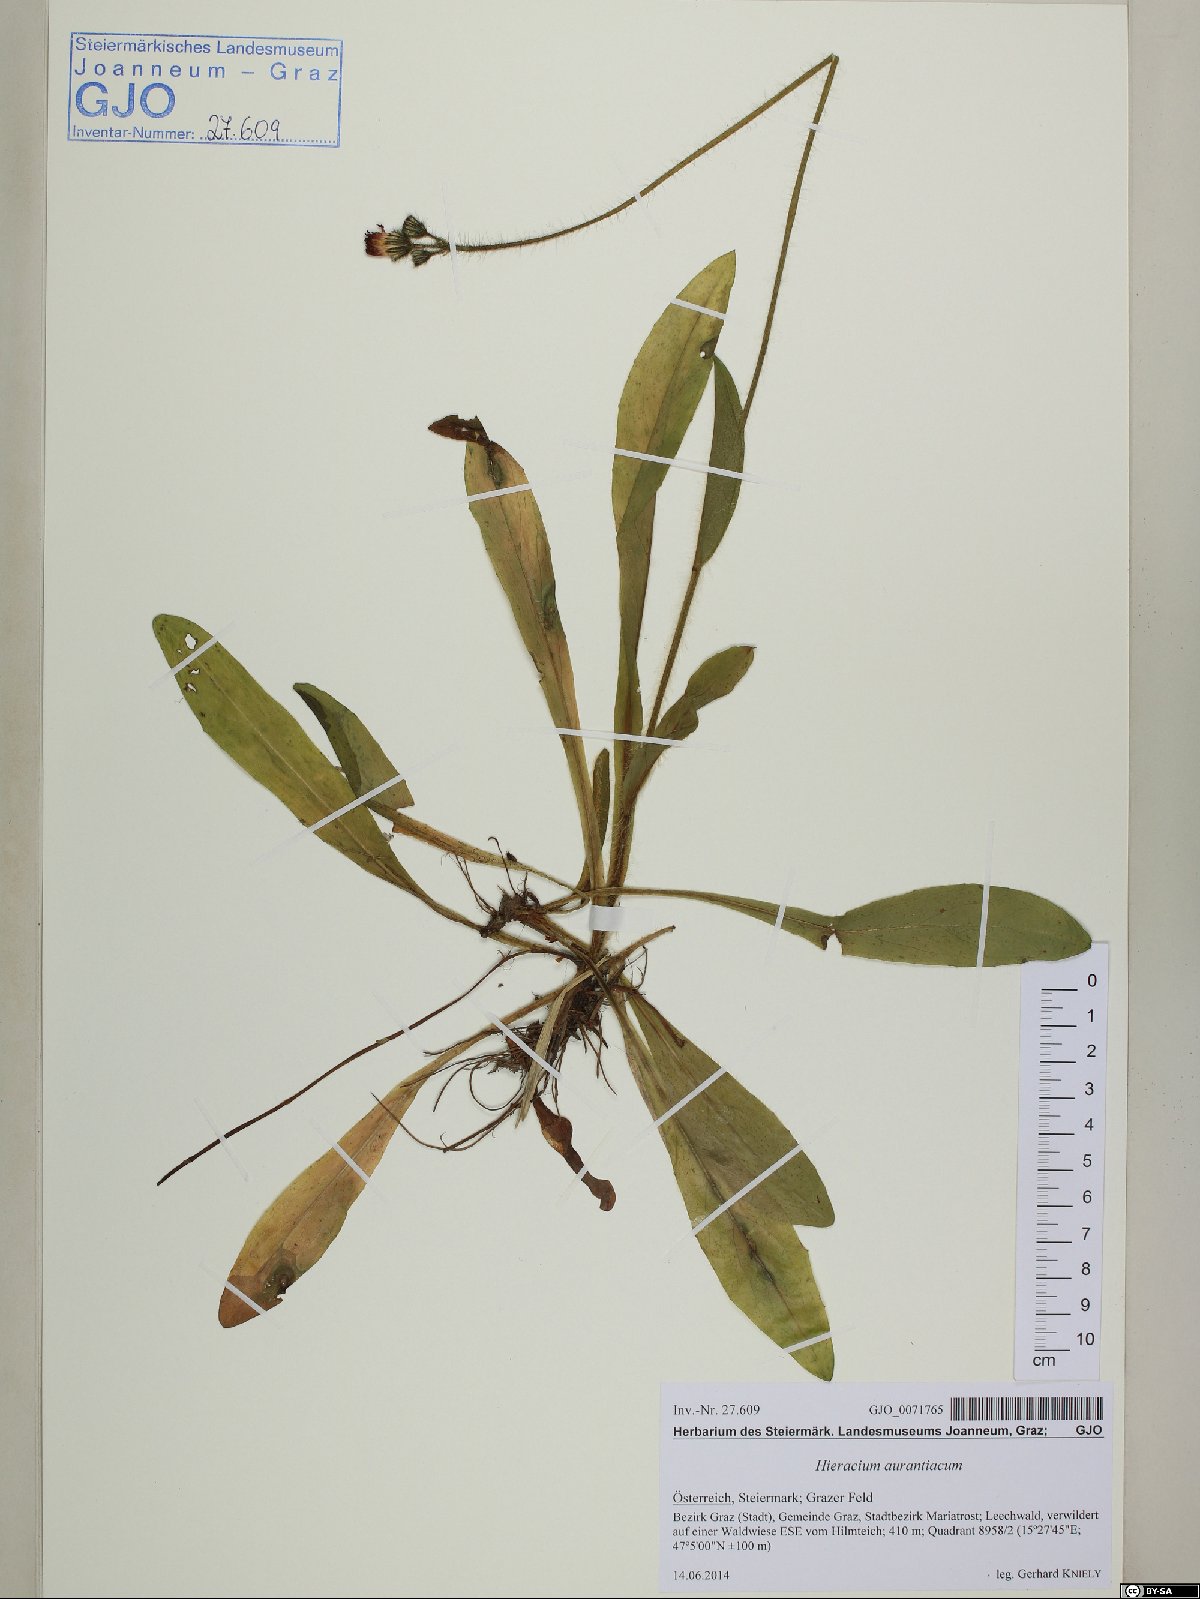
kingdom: Plantae
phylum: Tracheophyta
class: Magnoliopsida
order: Asterales
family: Asteraceae
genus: Pilosella
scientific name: Pilosella aurantiaca
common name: Fox-and-cubs
